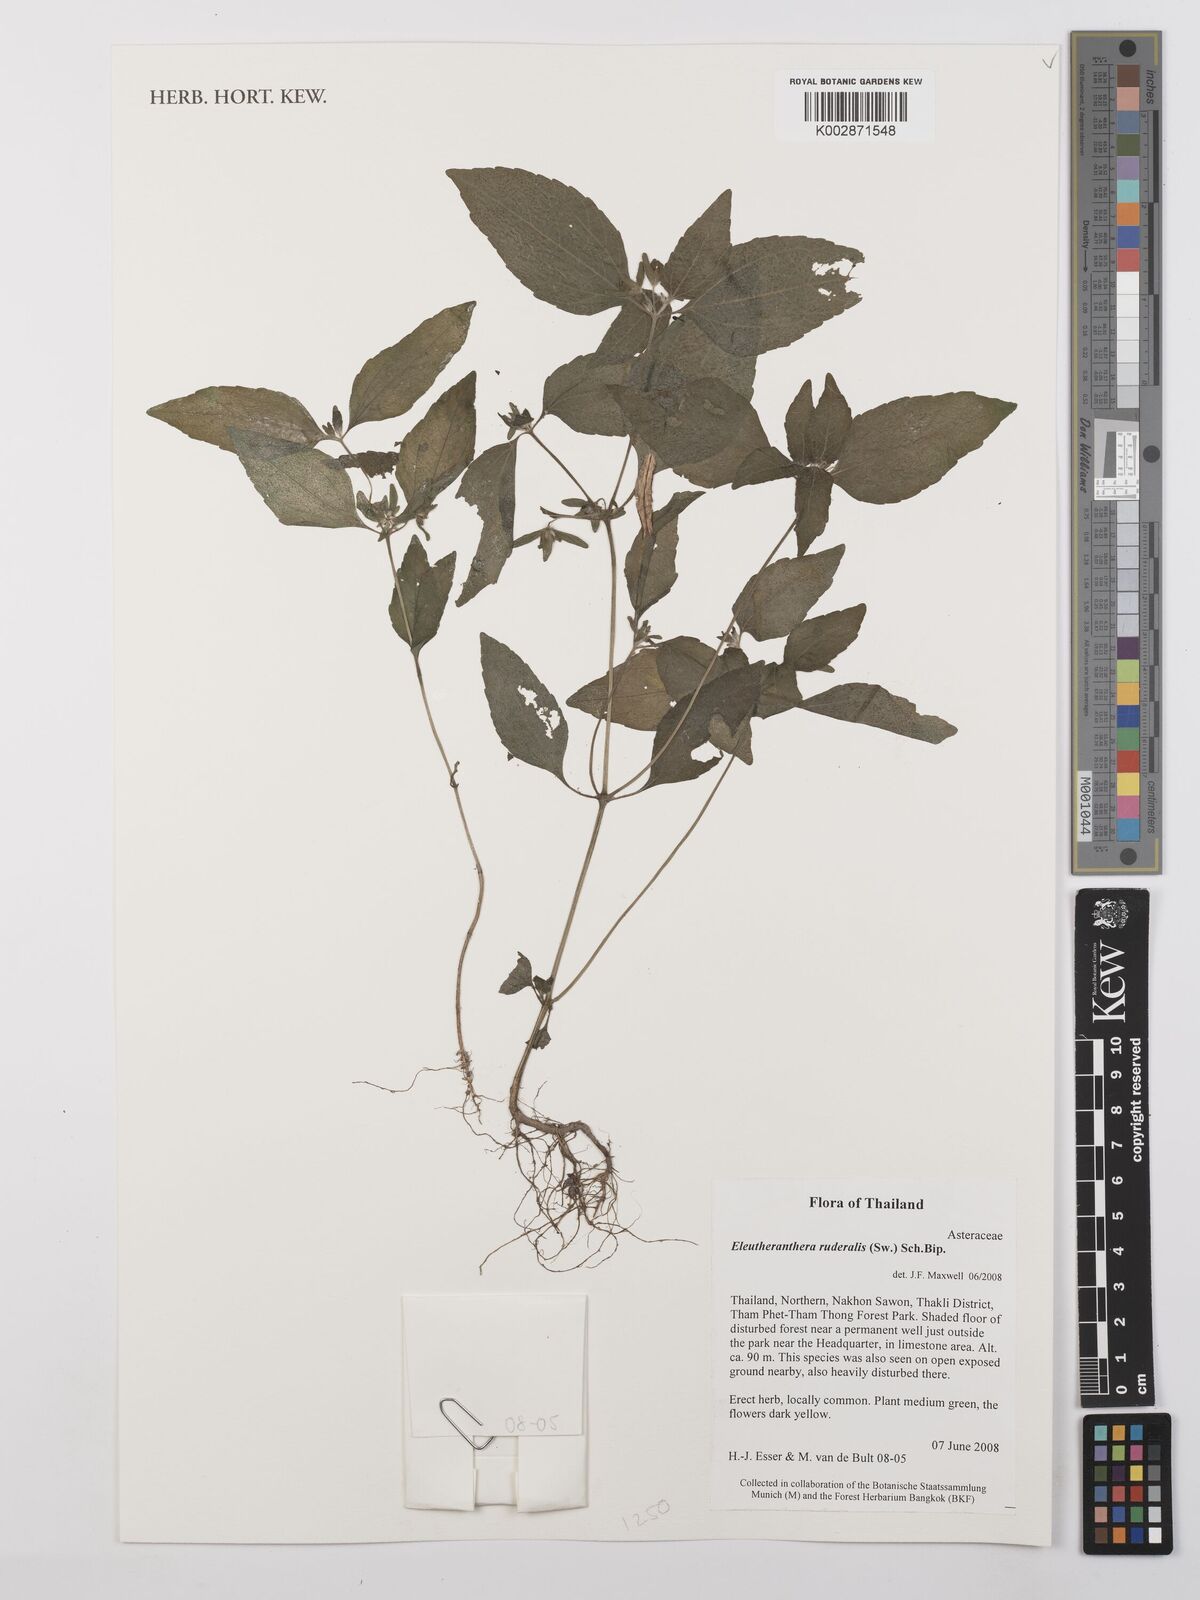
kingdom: Plantae
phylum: Tracheophyta
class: Magnoliopsida
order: Asterales
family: Asteraceae
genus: Eleutheranthera
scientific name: Eleutheranthera ruderalis
